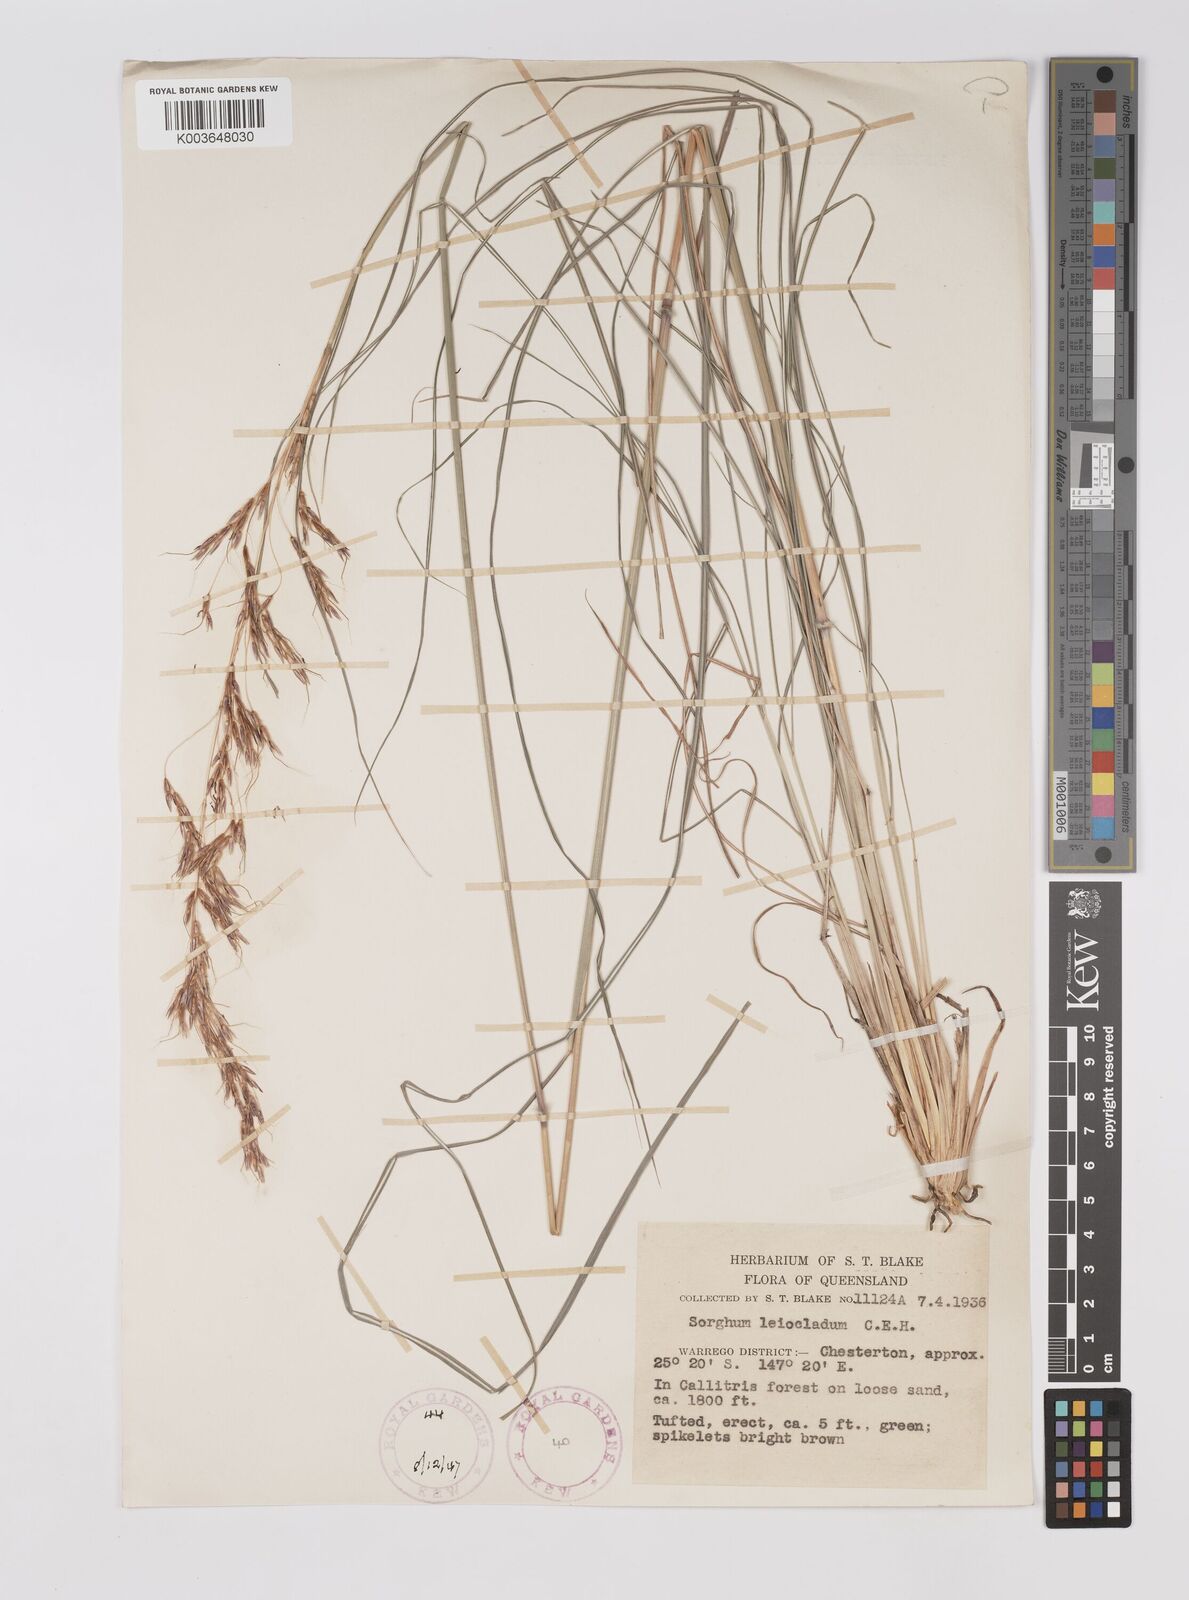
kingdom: Plantae
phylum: Tracheophyta
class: Liliopsida
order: Poales
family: Poaceae
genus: Sarga
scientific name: Sarga leioclada
